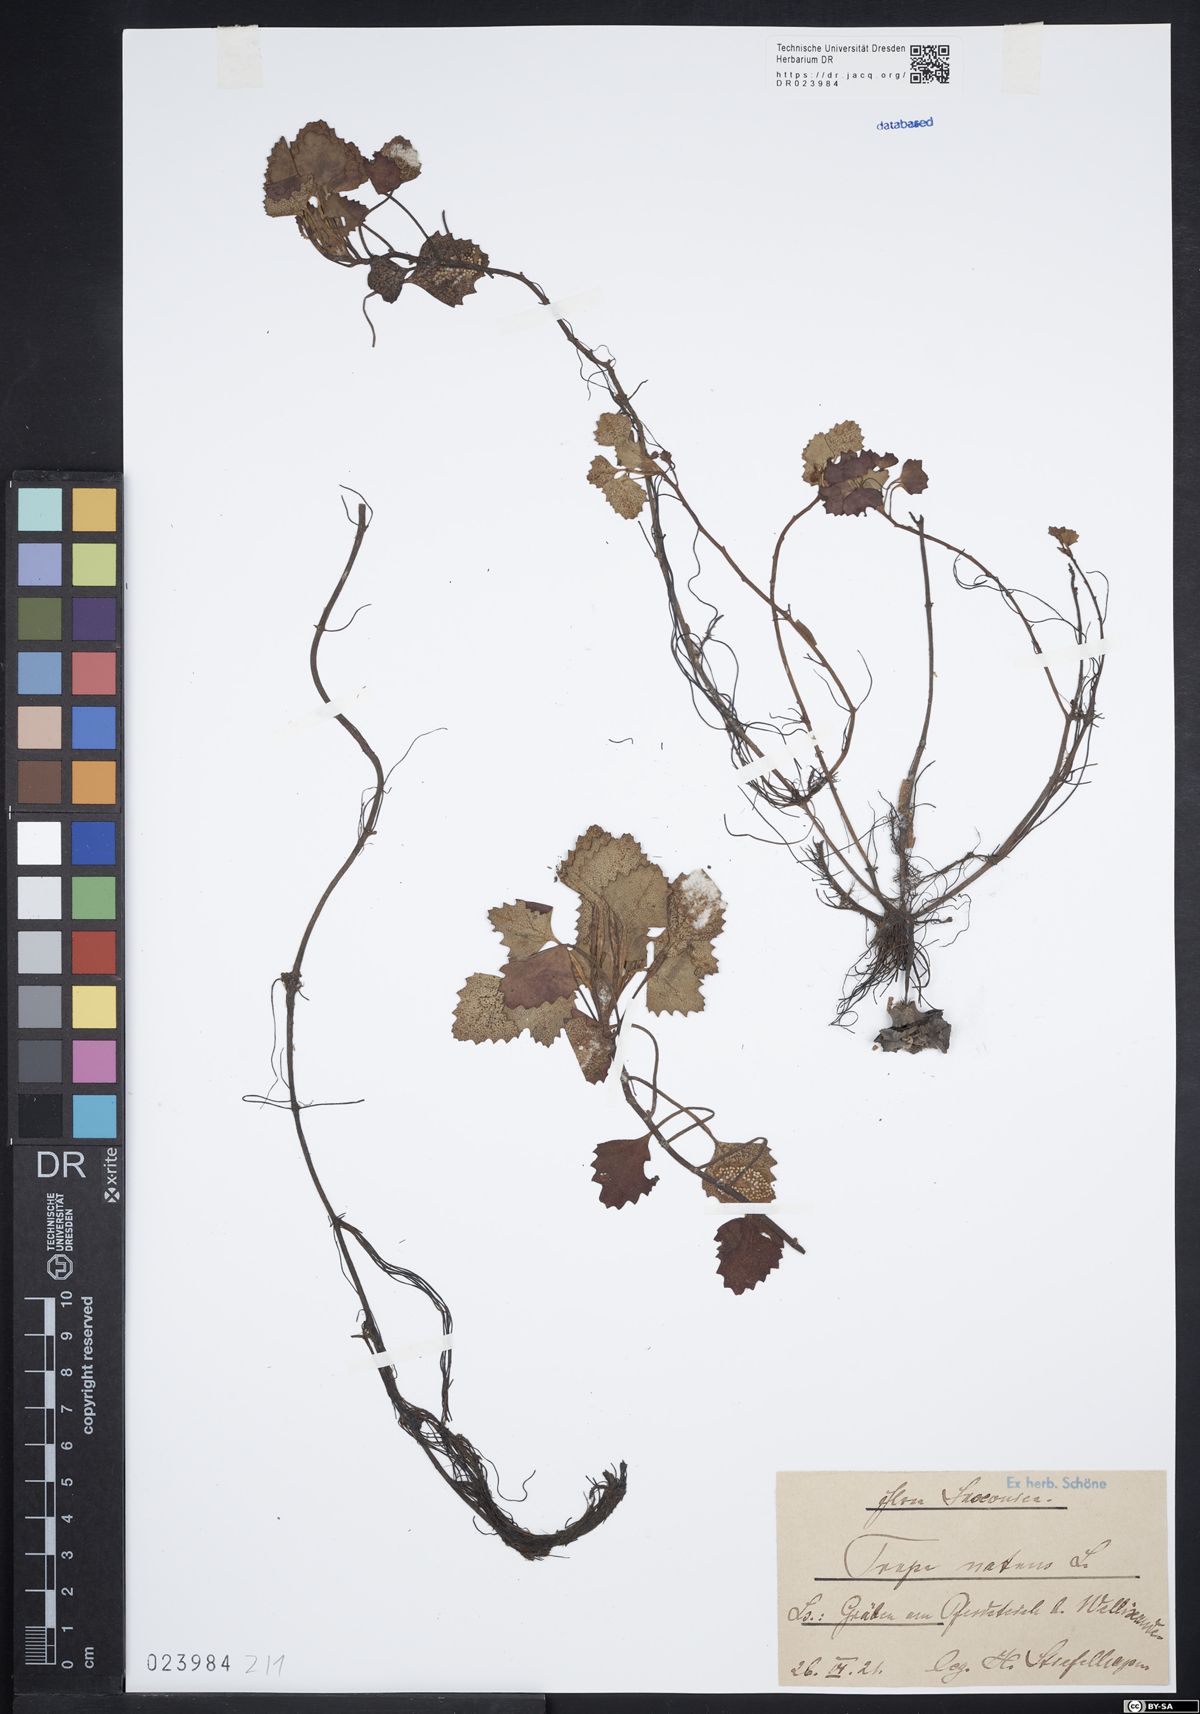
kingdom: Plantae
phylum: Tracheophyta
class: Magnoliopsida
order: Myrtales
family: Lythraceae
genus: Trapa
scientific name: Trapa natans
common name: Water chestnut
